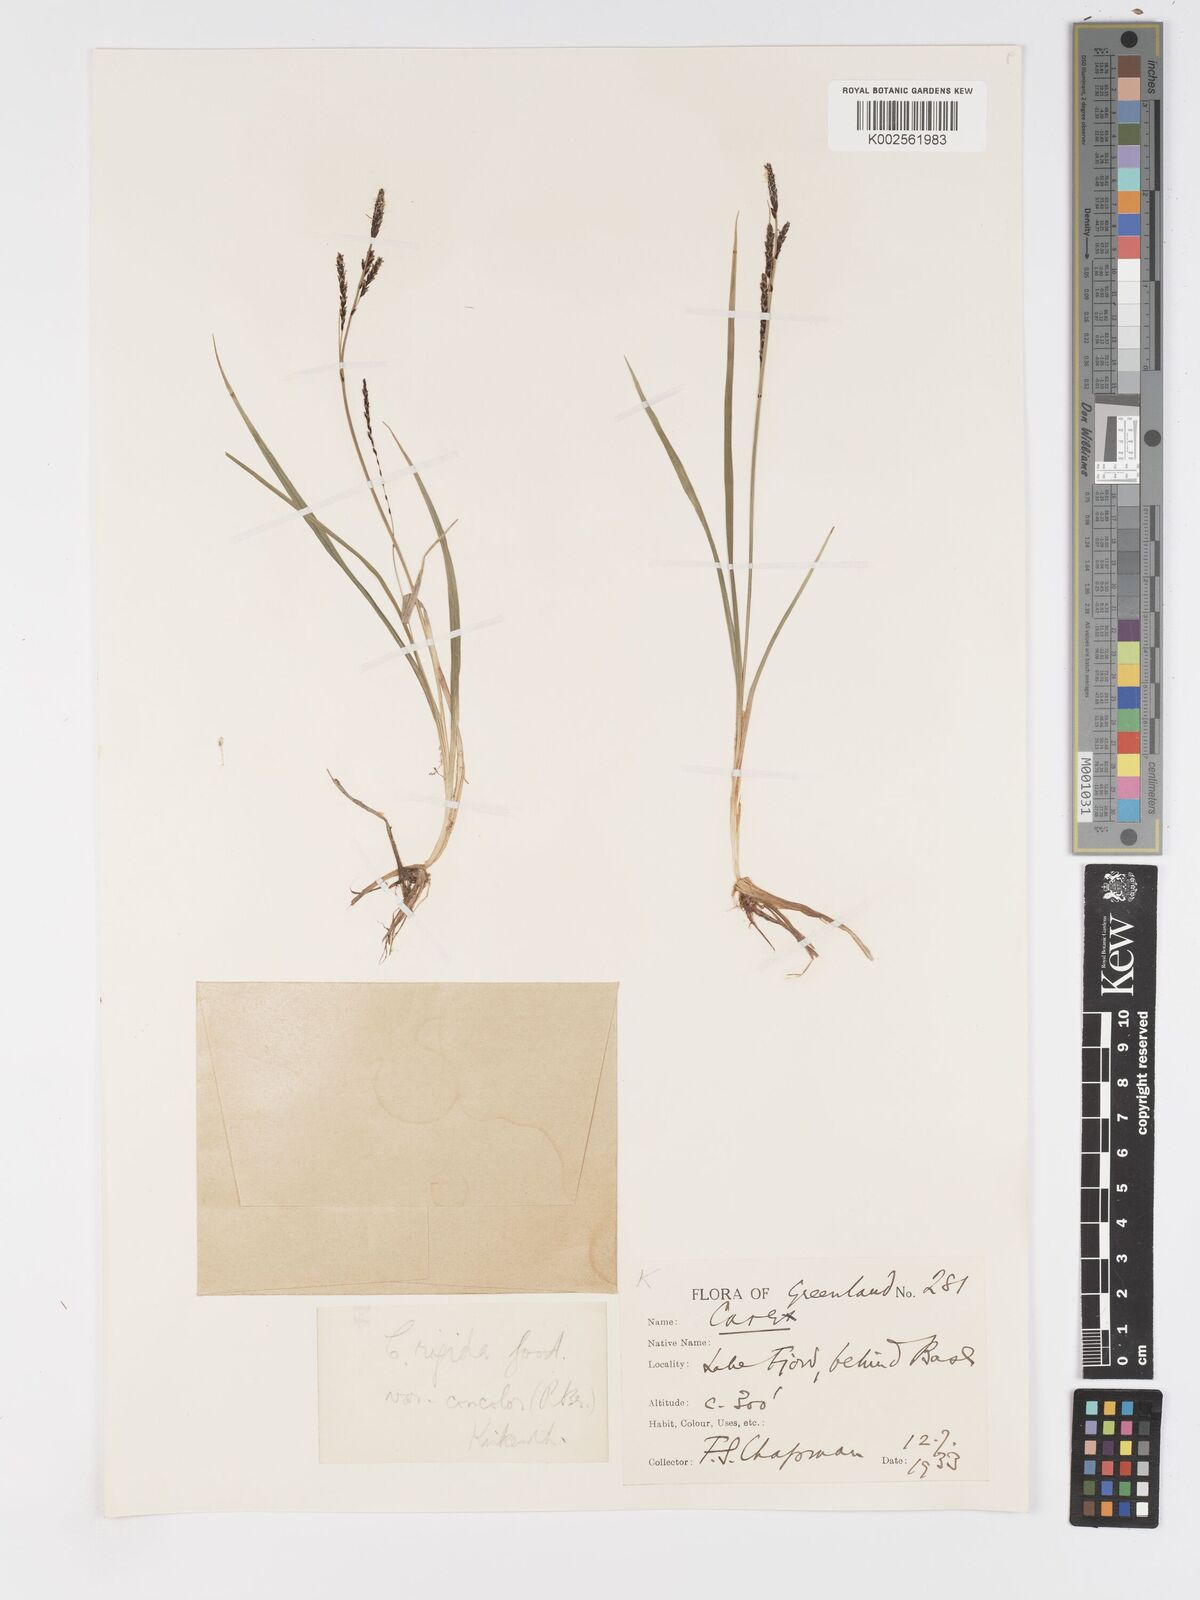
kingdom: Plantae
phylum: Tracheophyta
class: Liliopsida
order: Poales
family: Cyperaceae
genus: Carex
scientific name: Carex bigelowii
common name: Stiff sedge
